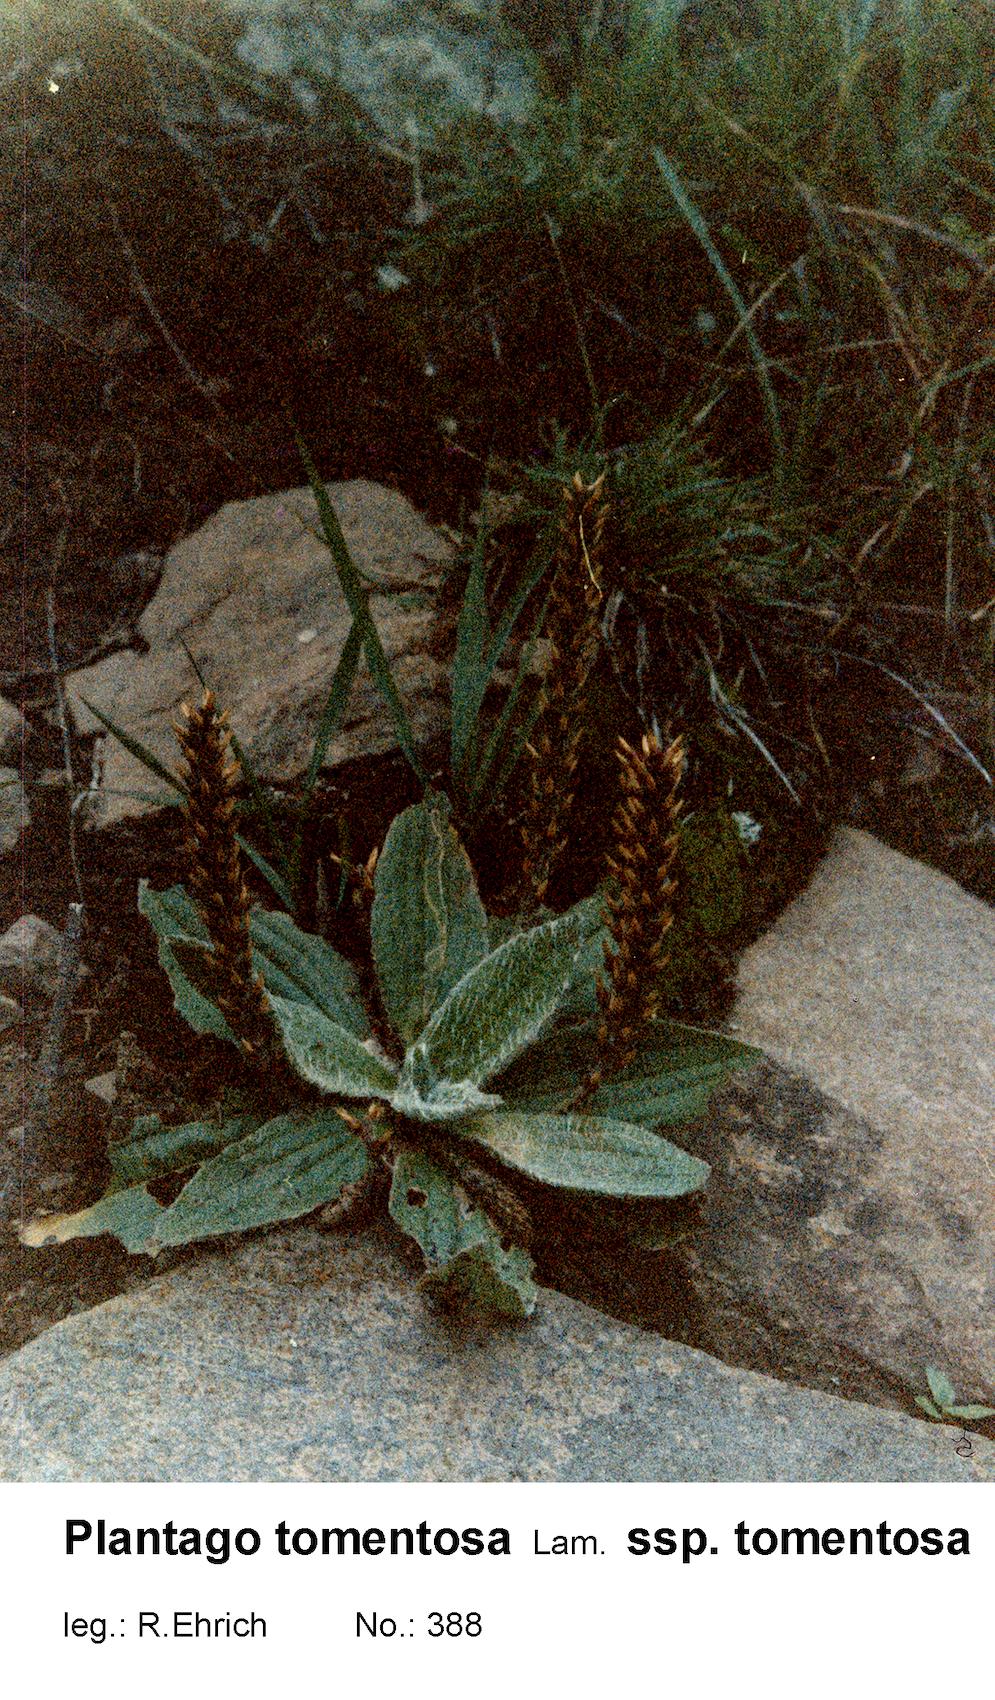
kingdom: Plantae
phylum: Tracheophyta
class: Magnoliopsida
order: Lamiales
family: Plantaginaceae
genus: Plantago
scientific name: Plantago tomentosa
